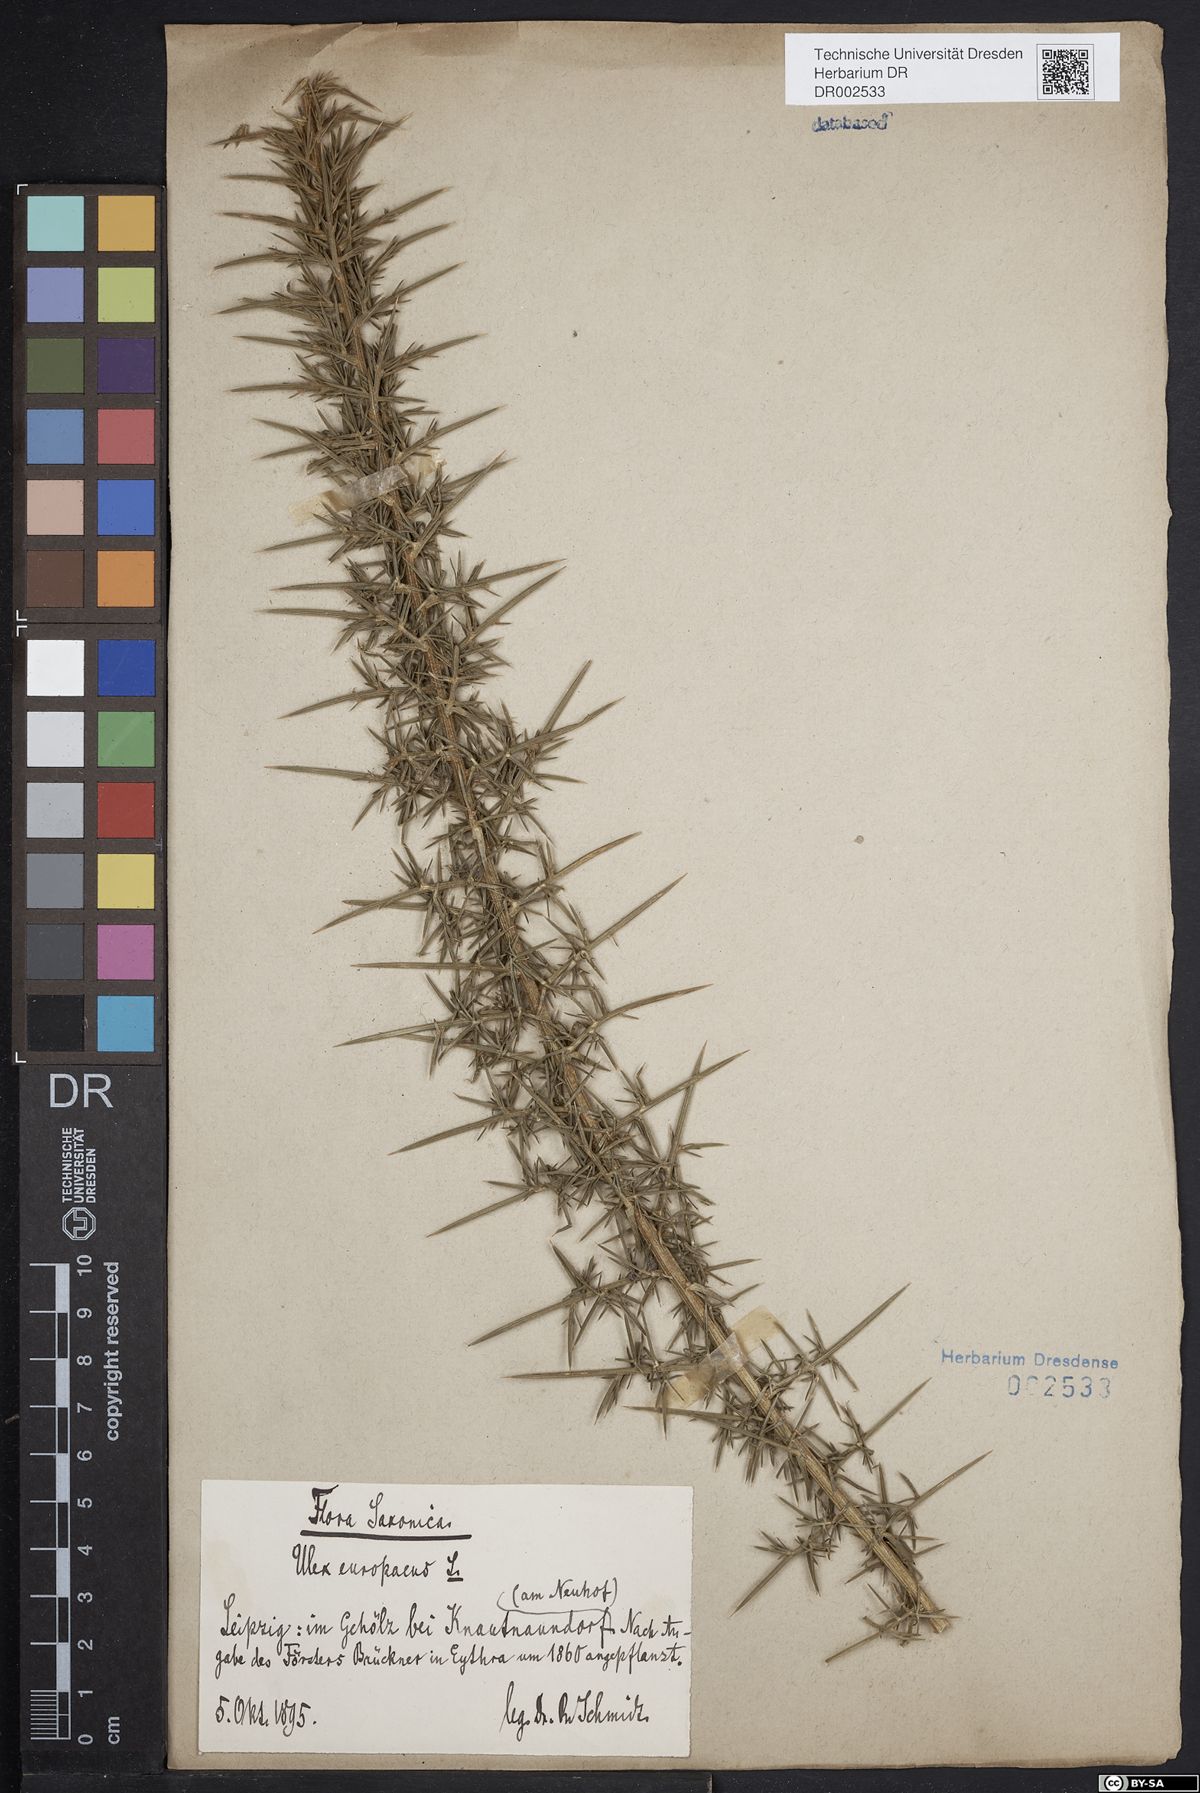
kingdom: Plantae
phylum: Tracheophyta
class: Magnoliopsida
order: Fabales
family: Fabaceae
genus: Ulex
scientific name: Ulex europaeus
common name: Common gorse
